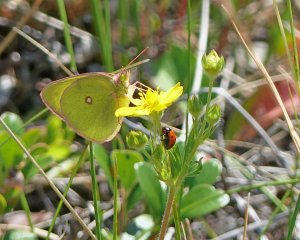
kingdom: Animalia
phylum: Arthropoda
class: Insecta
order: Lepidoptera
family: Pieridae
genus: Colias
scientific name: Colias interior
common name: Pink-edged Sulphur
